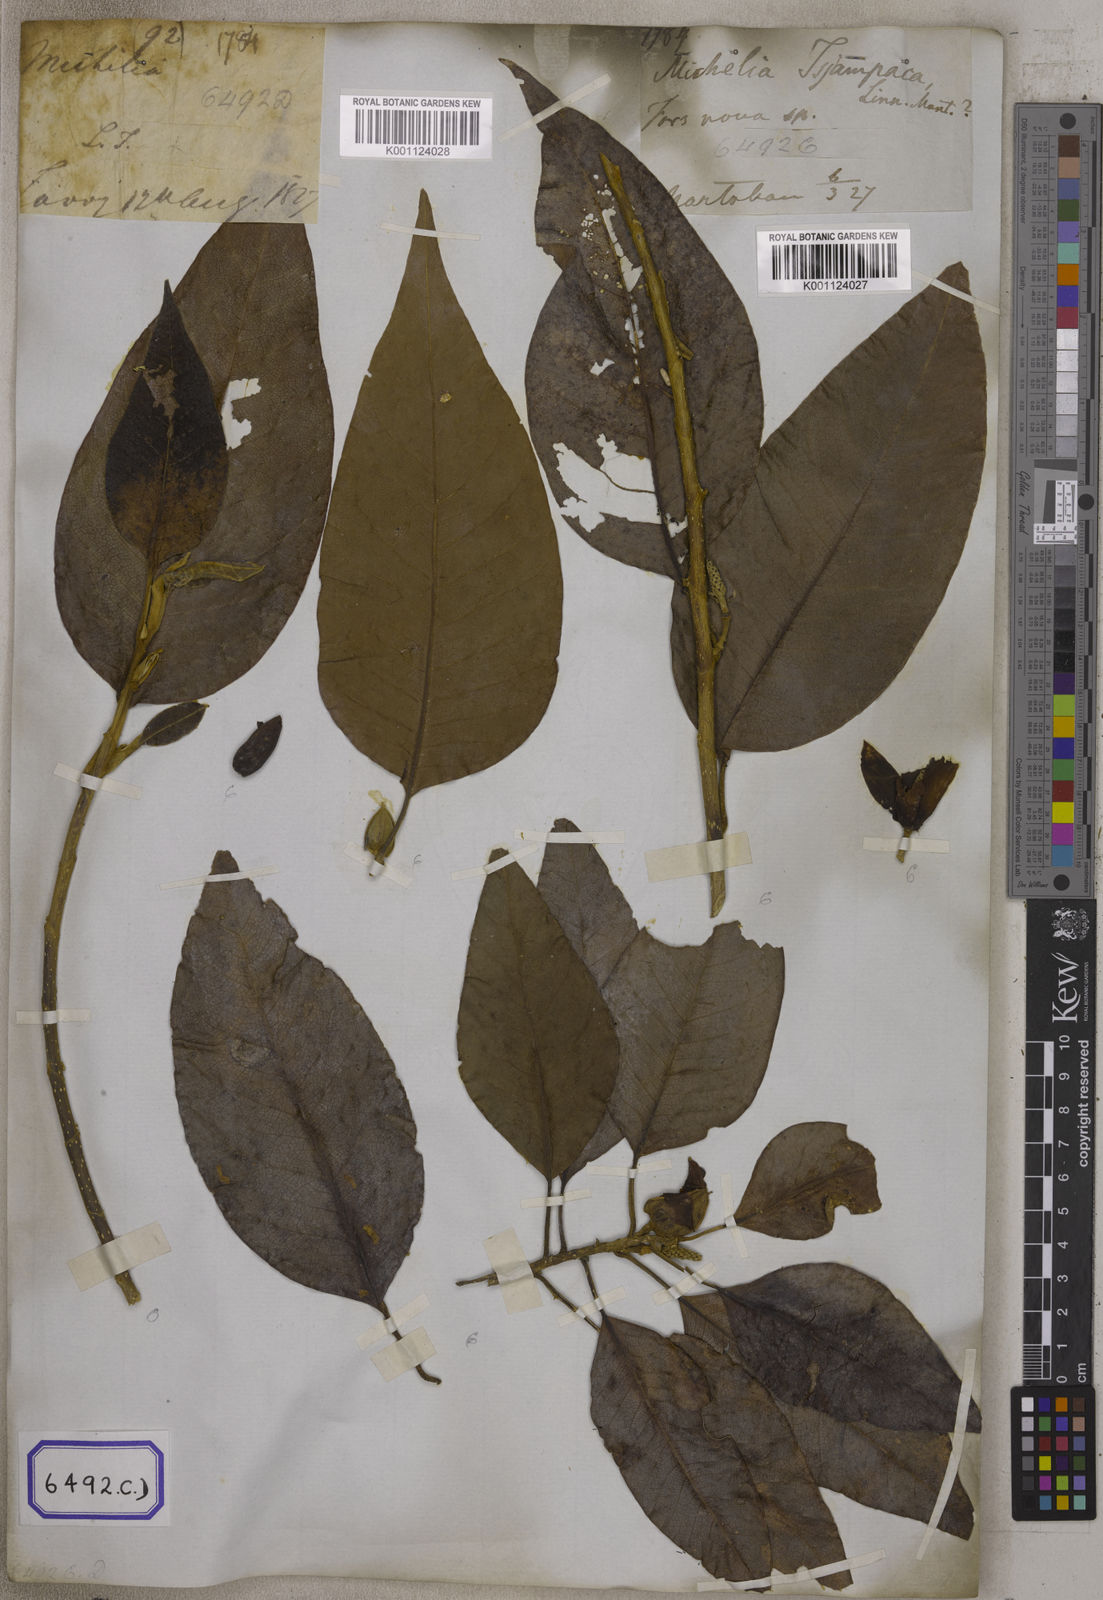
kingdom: Plantae
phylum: Tracheophyta
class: Magnoliopsida
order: Magnoliales
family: Magnoliaceae
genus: Magnolia
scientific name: Magnolia champaca
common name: Champak
